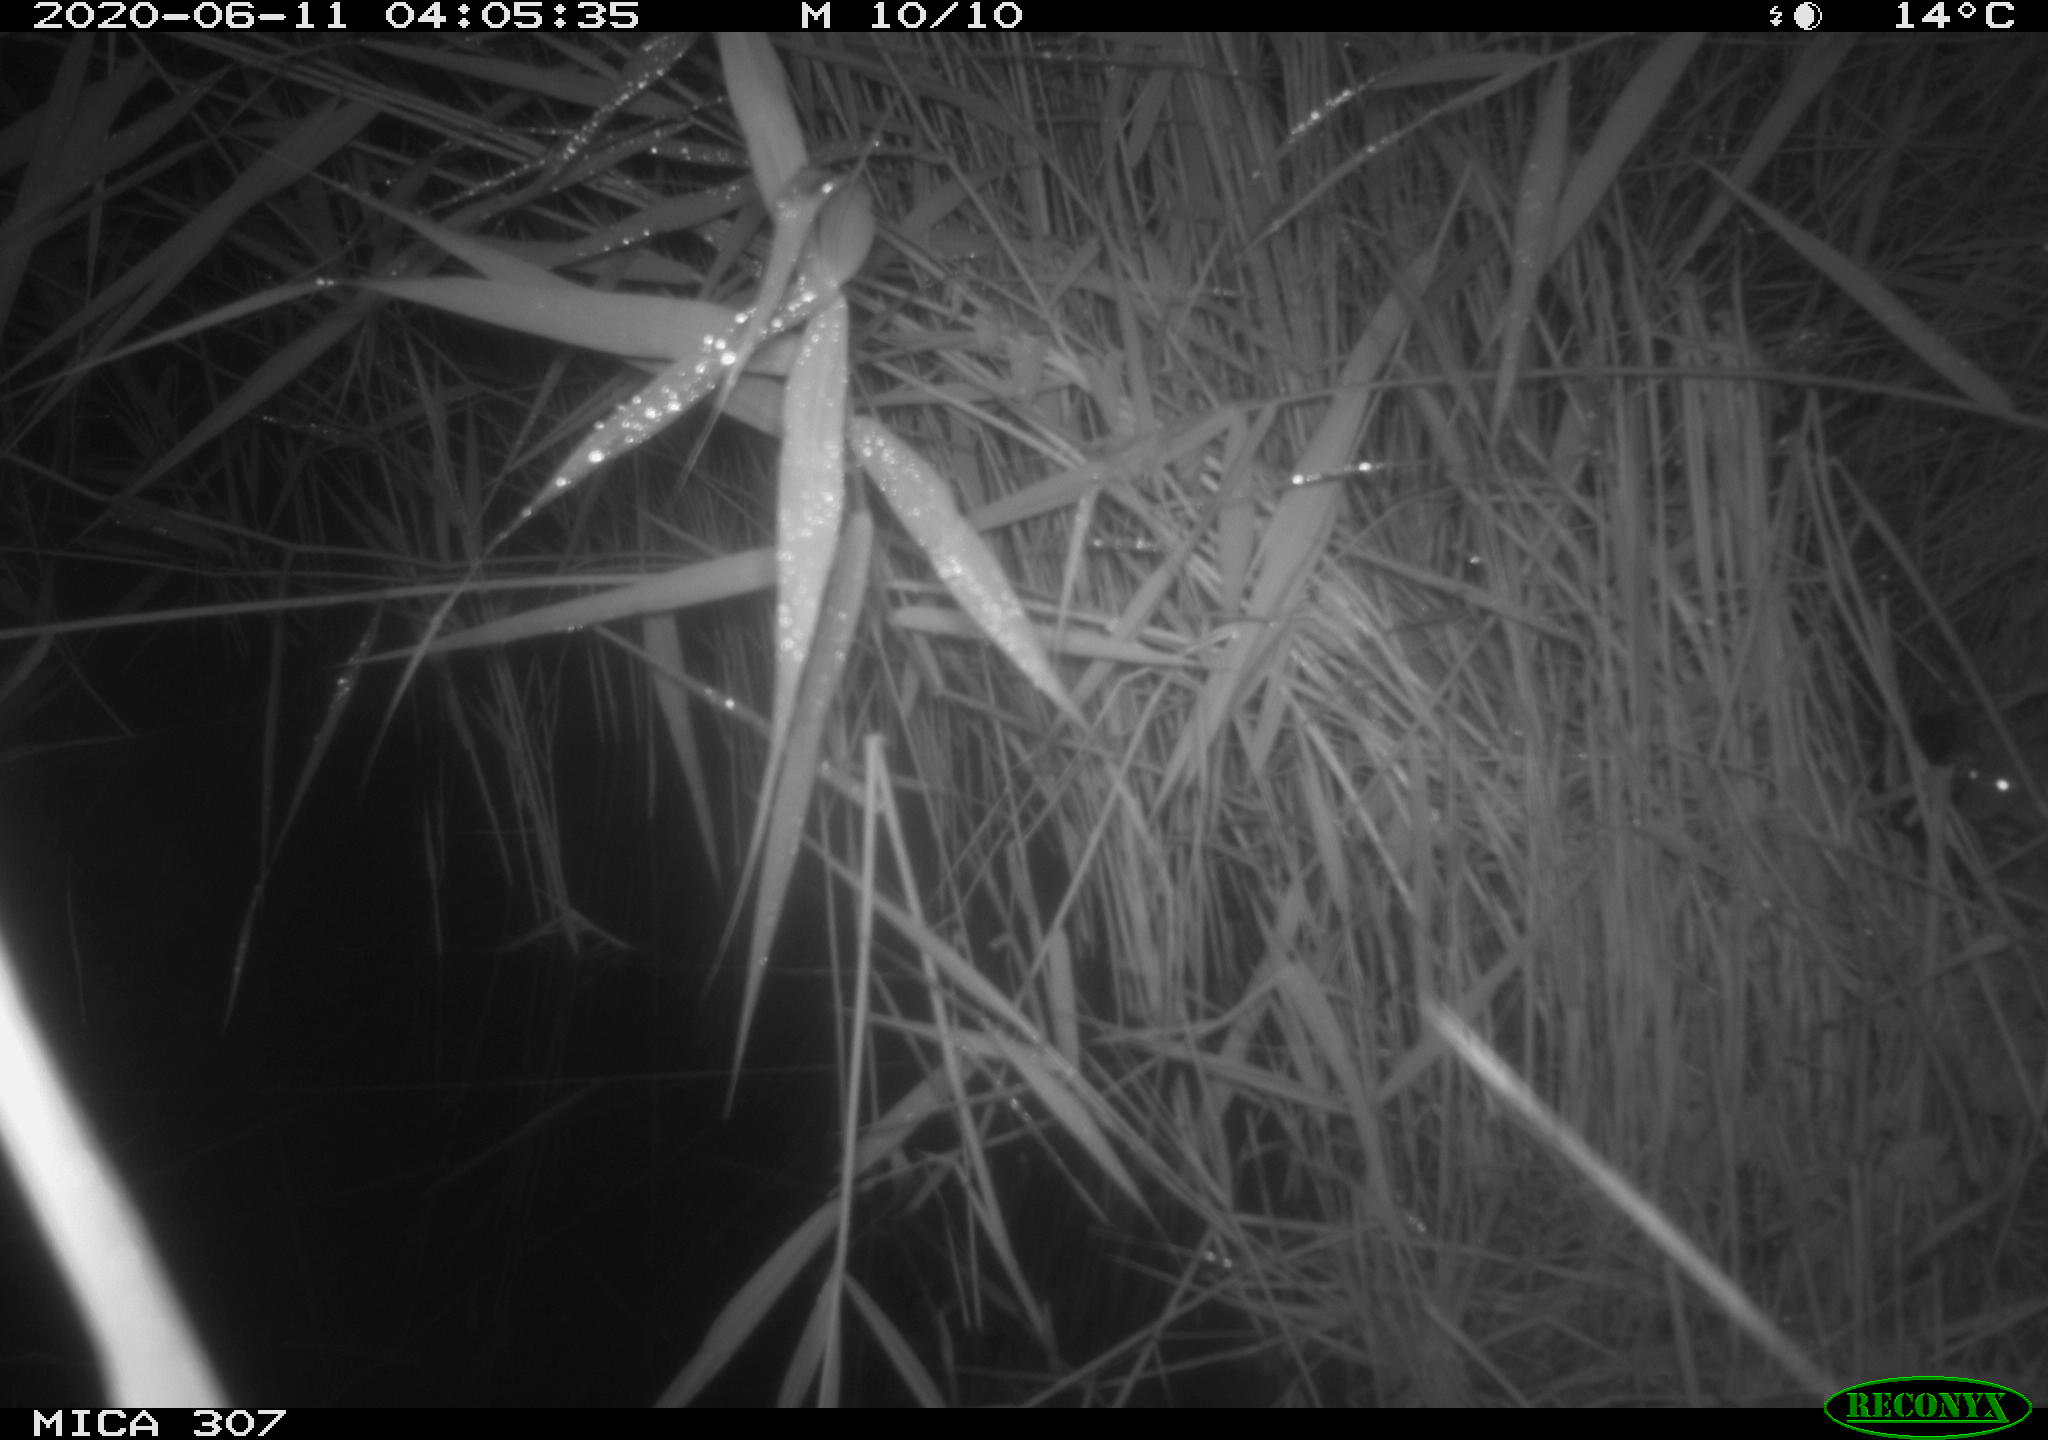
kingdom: Animalia
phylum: Chordata
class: Mammalia
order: Rodentia
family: Muridae
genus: Rattus
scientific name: Rattus norvegicus
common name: Brown rat
